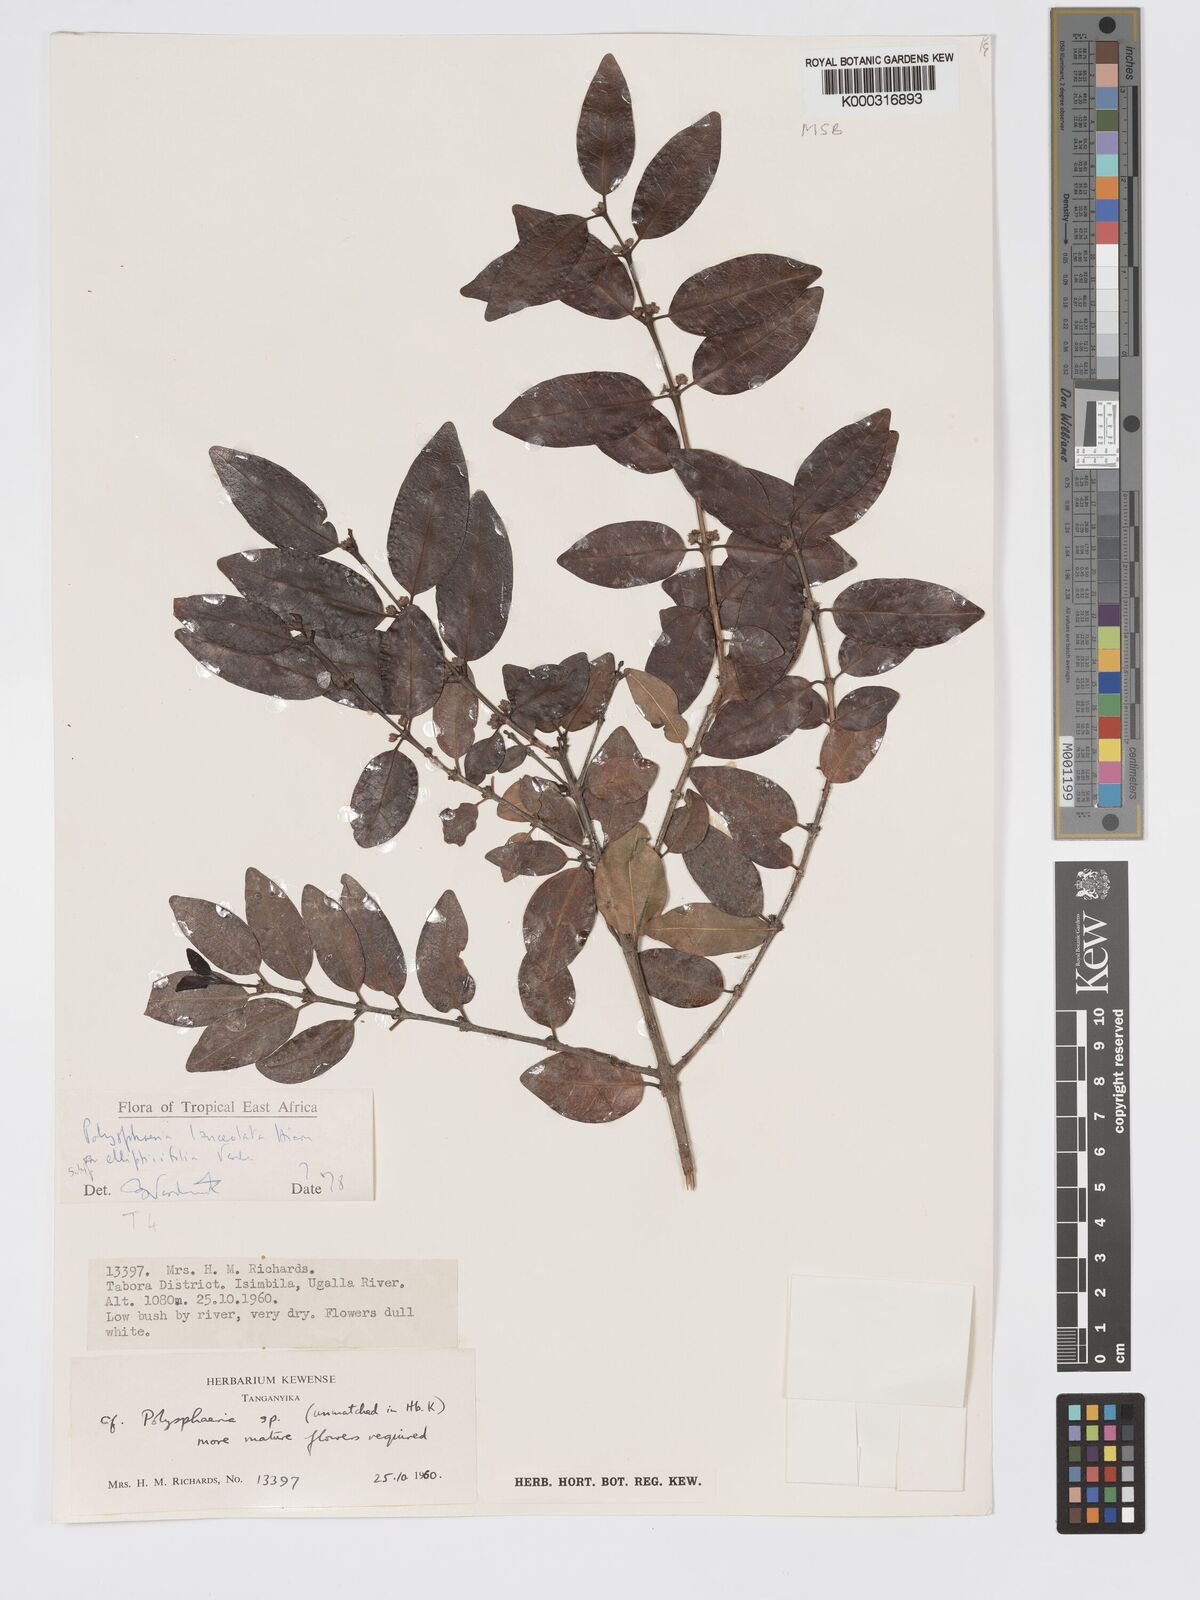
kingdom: Plantae
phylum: Tracheophyta
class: Magnoliopsida
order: Gentianales
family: Rubiaceae
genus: Polysphaeria
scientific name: Polysphaeria lanceolata
